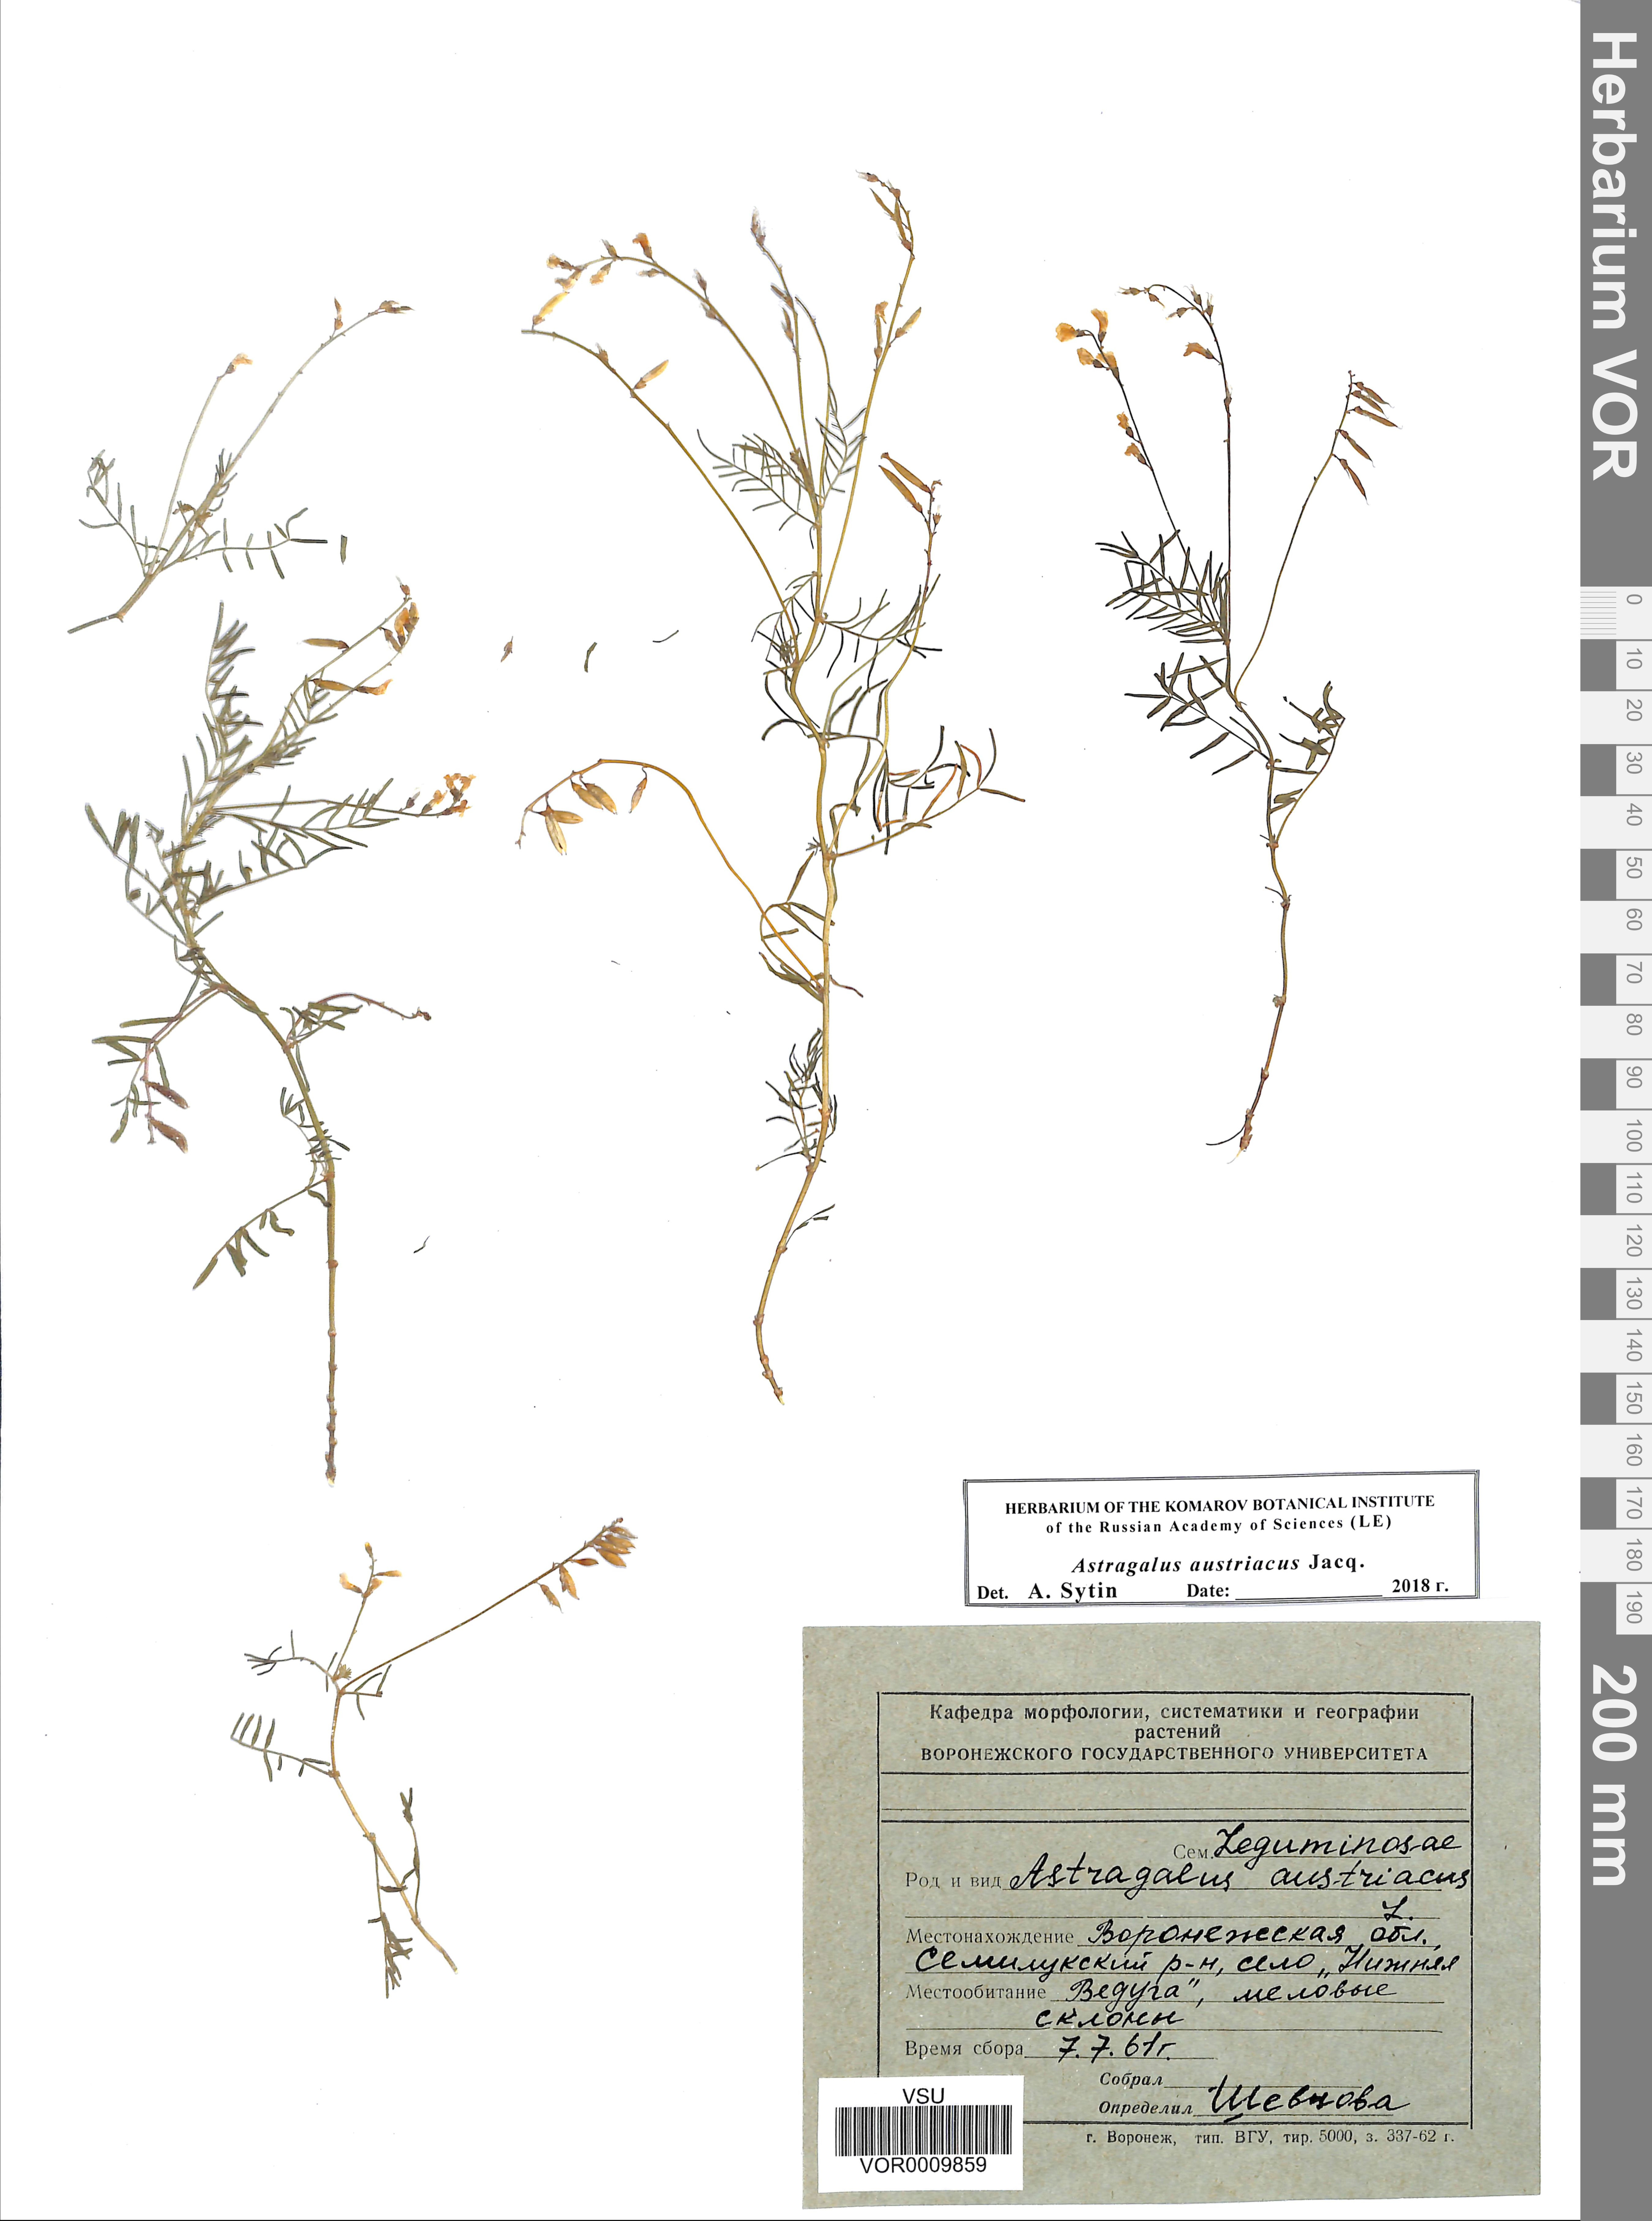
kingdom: Plantae
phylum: Tracheophyta
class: Magnoliopsida
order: Fabales
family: Fabaceae
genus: Astragalus
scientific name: Astragalus austriacus
